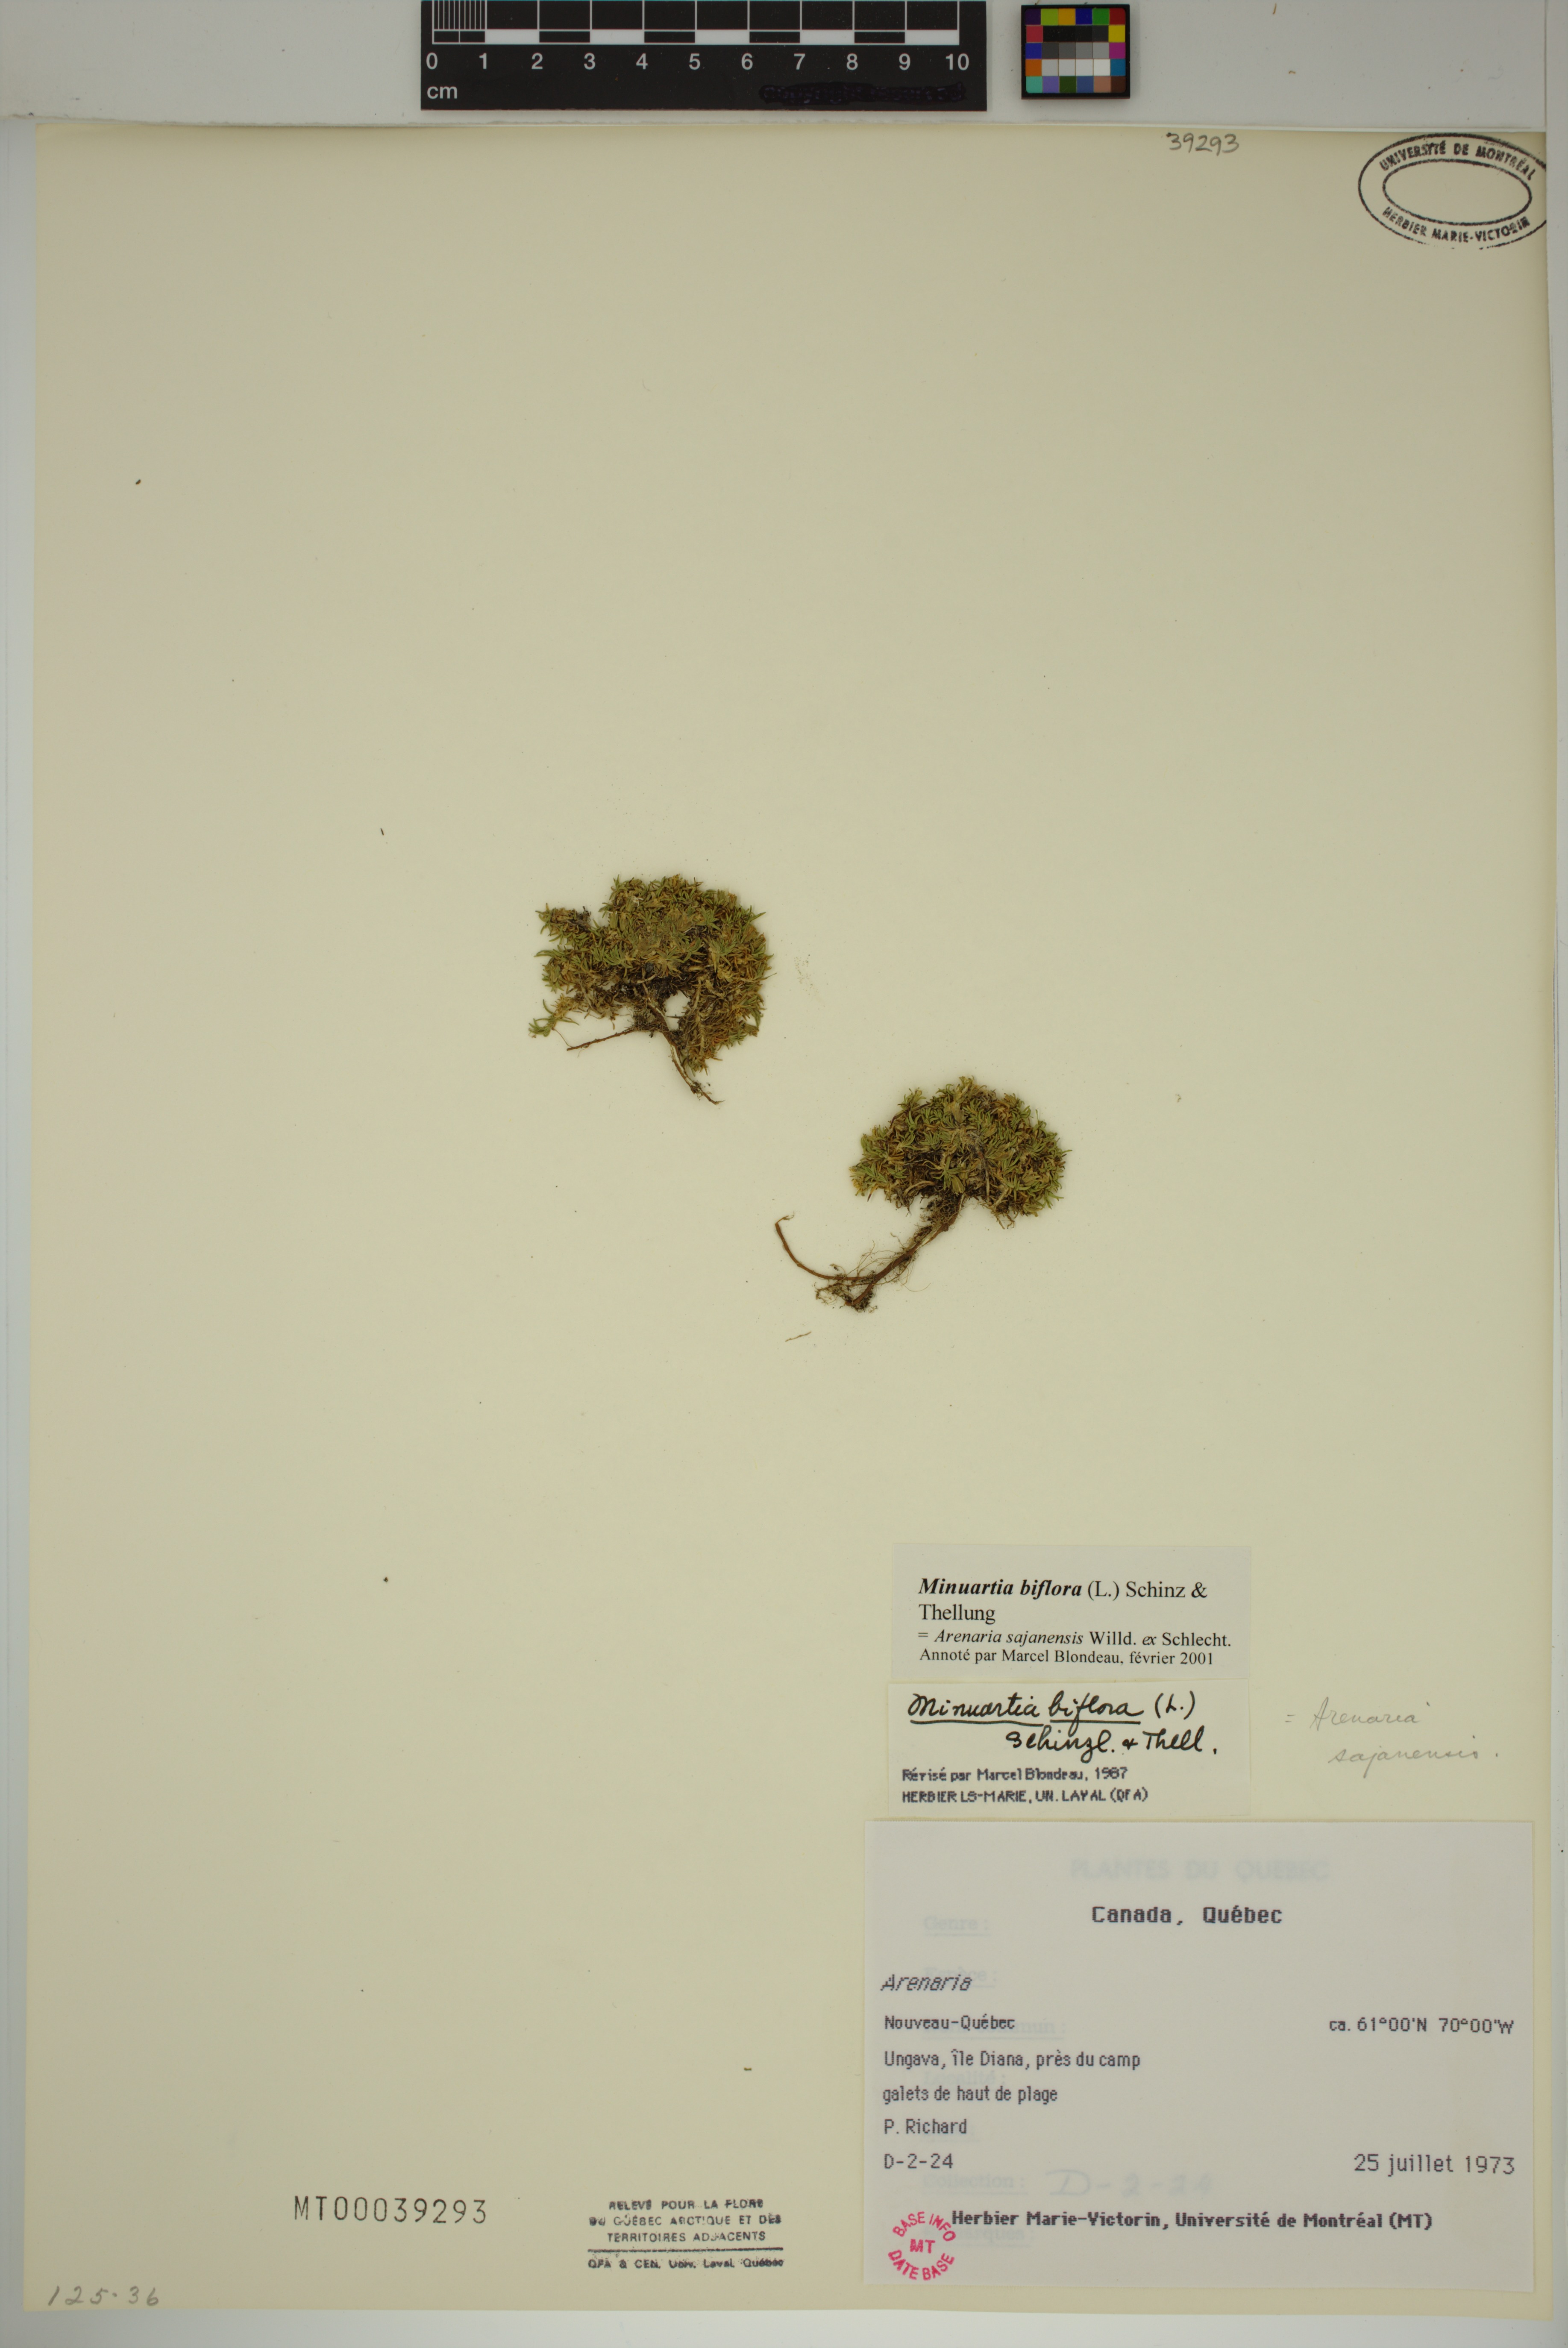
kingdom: Plantae
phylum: Tracheophyta
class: Magnoliopsida
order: Caryophyllales
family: Caryophyllaceae
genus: Cherleria
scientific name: Cherleria biflora
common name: Mountain sandwort
